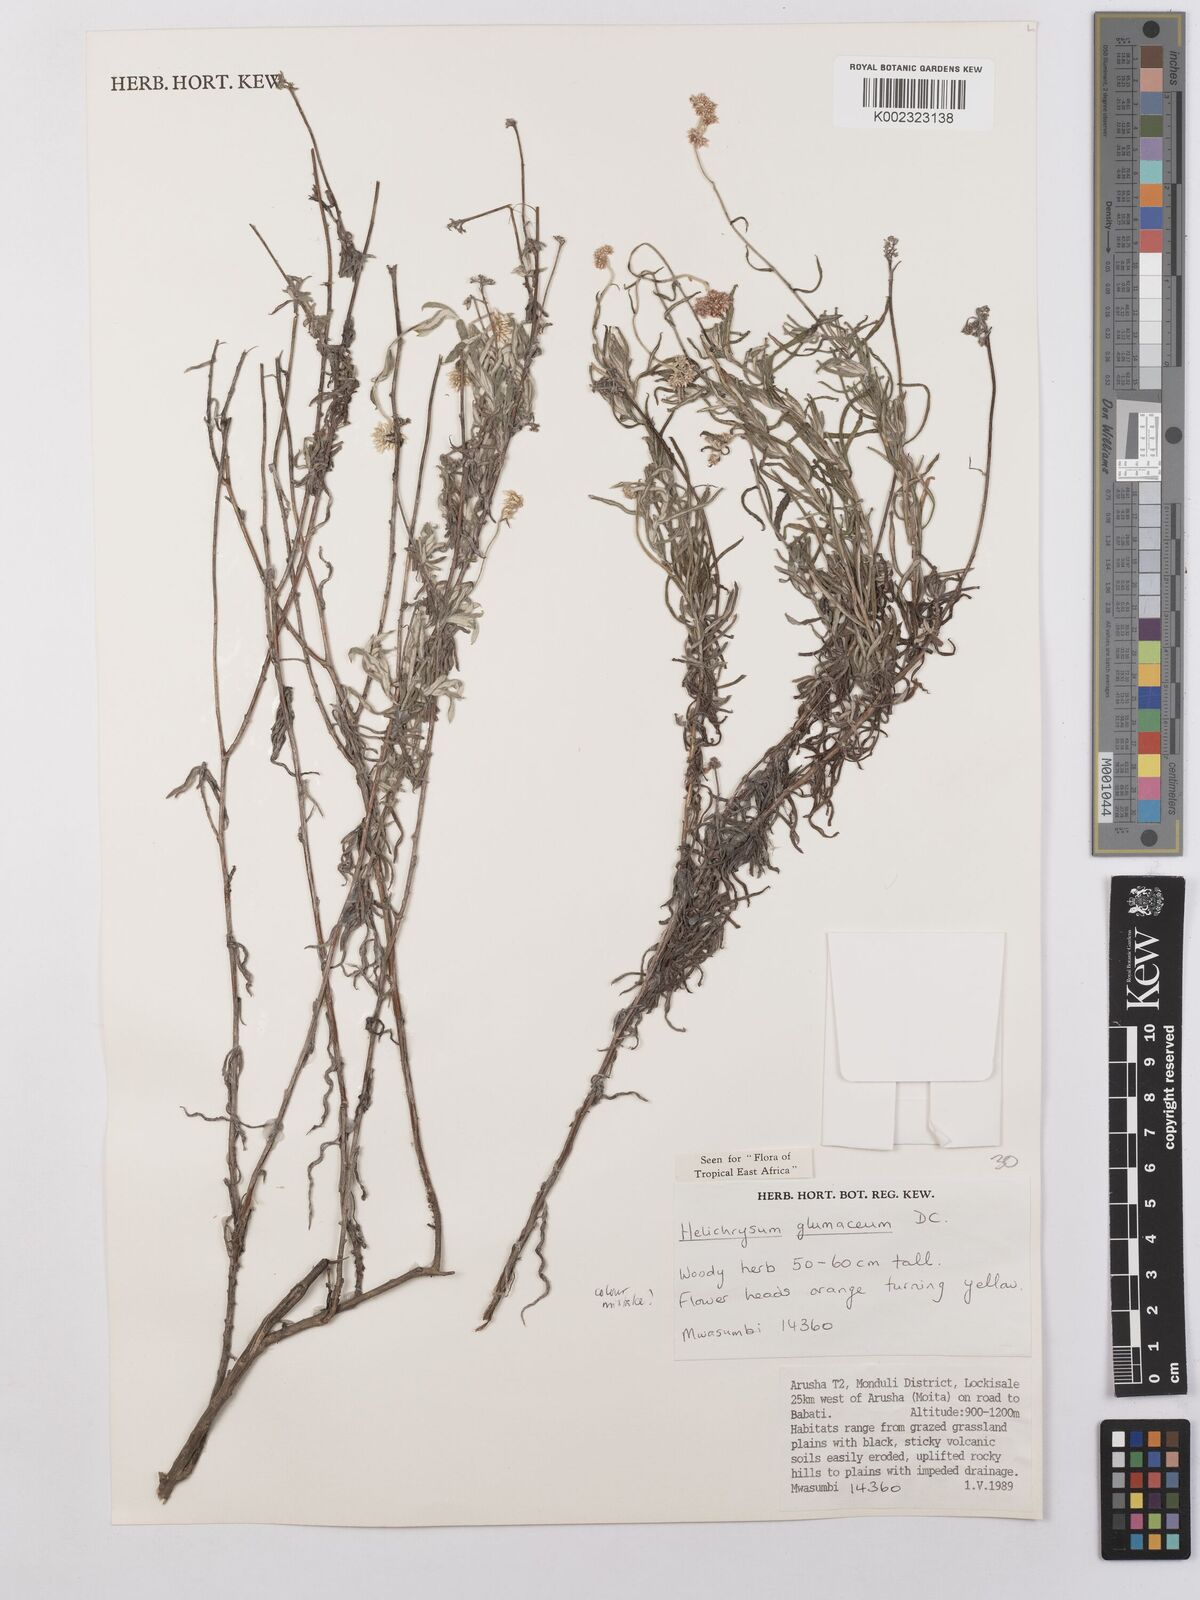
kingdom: Plantae
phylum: Tracheophyta
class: Magnoliopsida
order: Asterales
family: Asteraceae
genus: Helichrysum
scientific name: Helichrysum glumaceum
